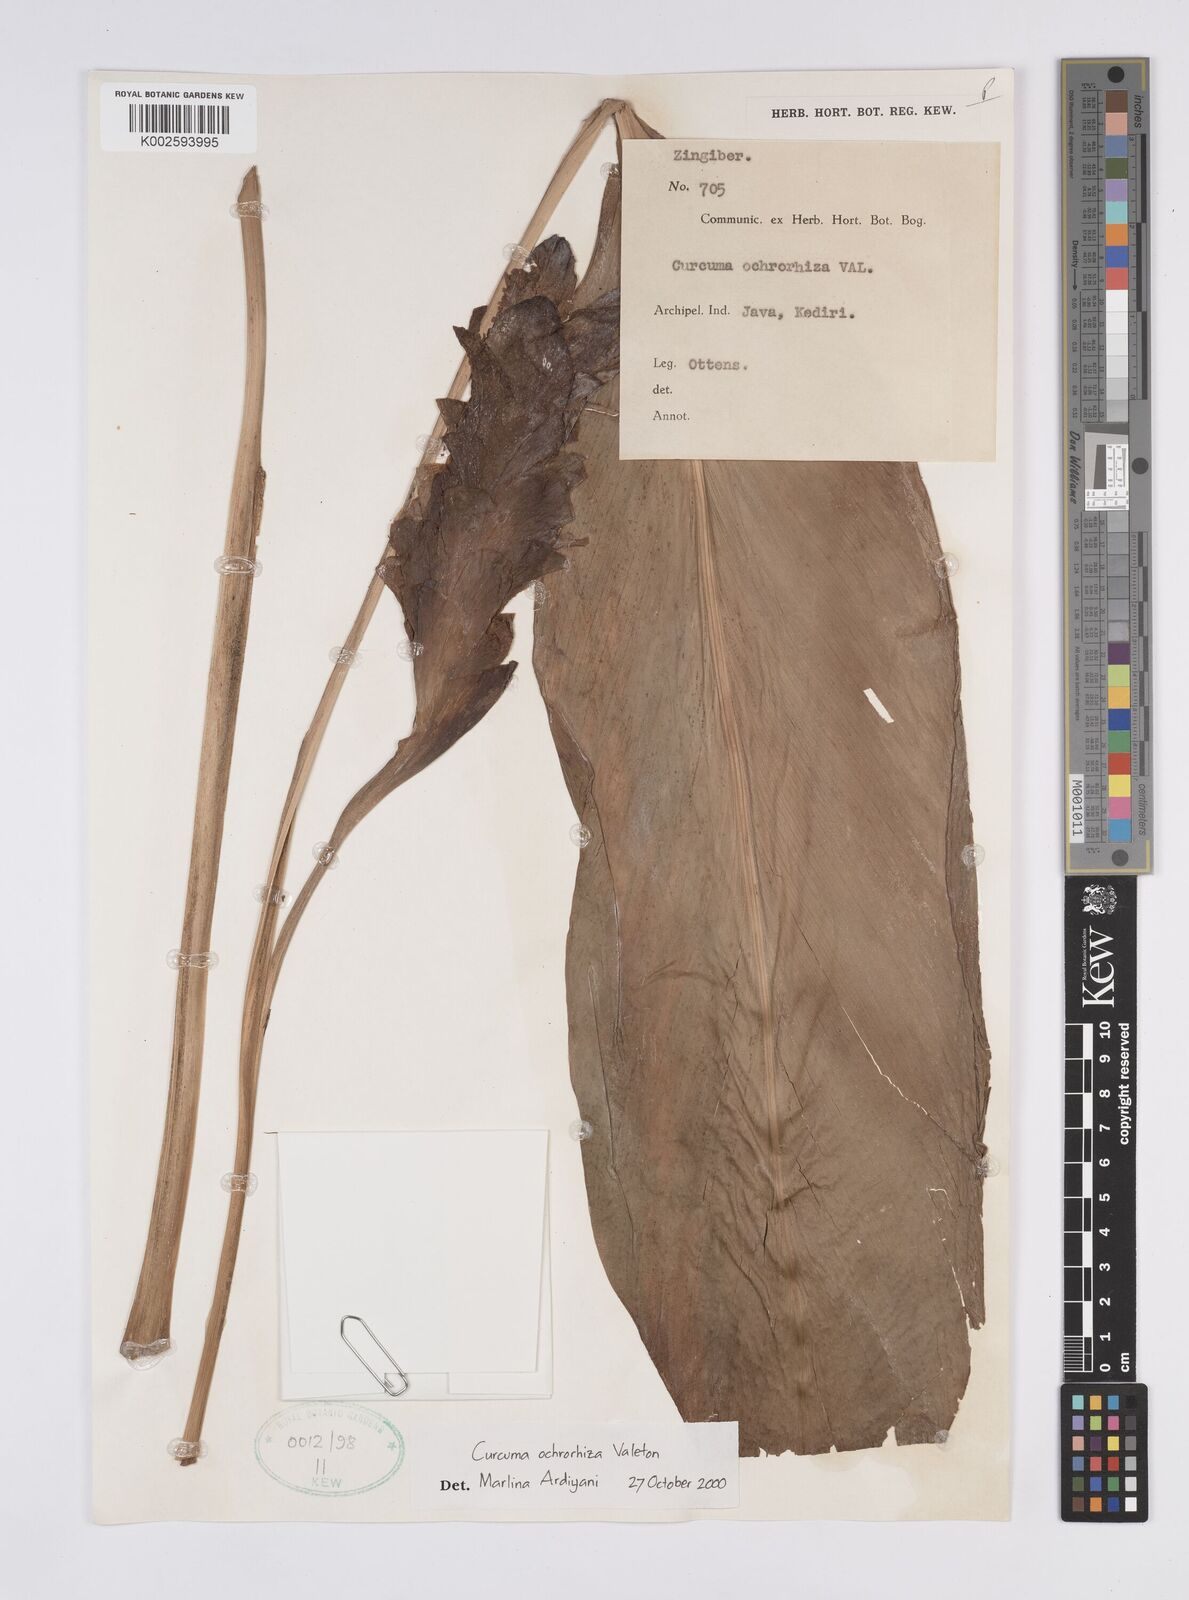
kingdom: Plantae
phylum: Tracheophyta
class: Liliopsida
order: Zingiberales
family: Zingiberaceae
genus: Curcuma
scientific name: Curcuma longa
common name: Turmeric
